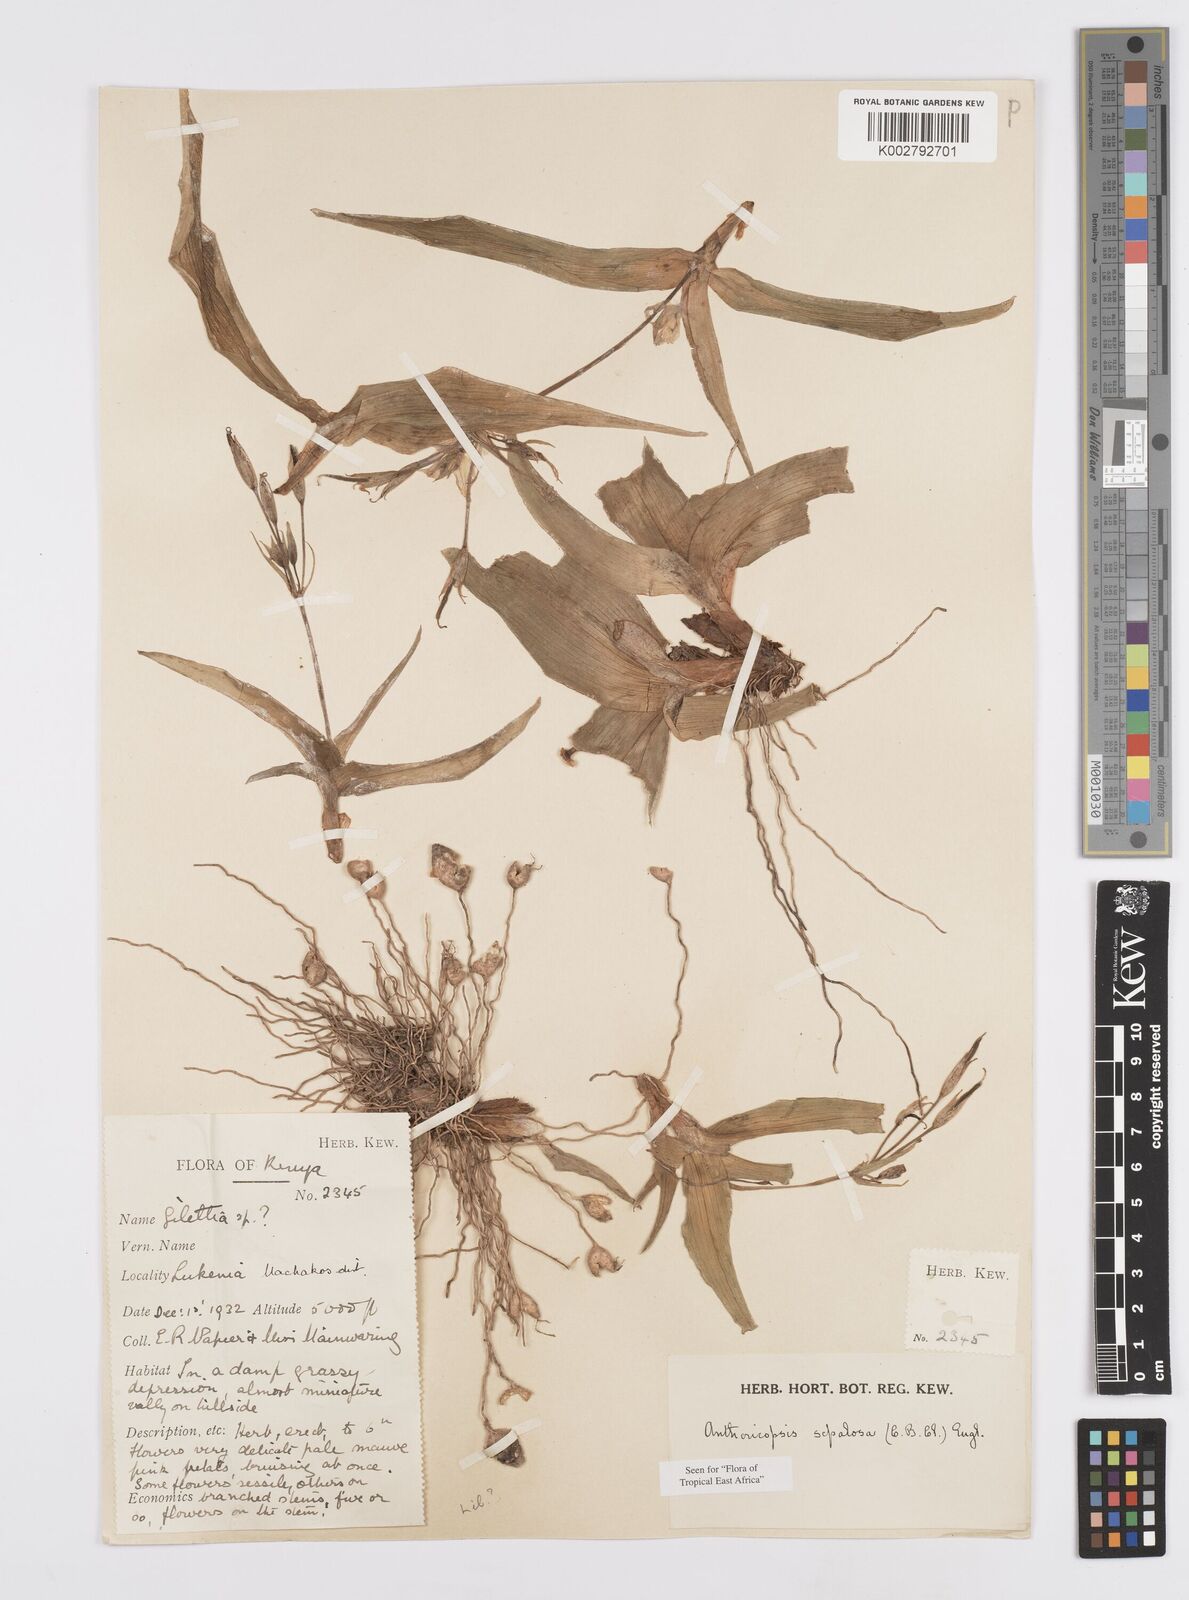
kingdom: Plantae
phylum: Tracheophyta
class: Liliopsida
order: Commelinales
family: Commelinaceae
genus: Anthericopsis
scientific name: Anthericopsis sepalosa
